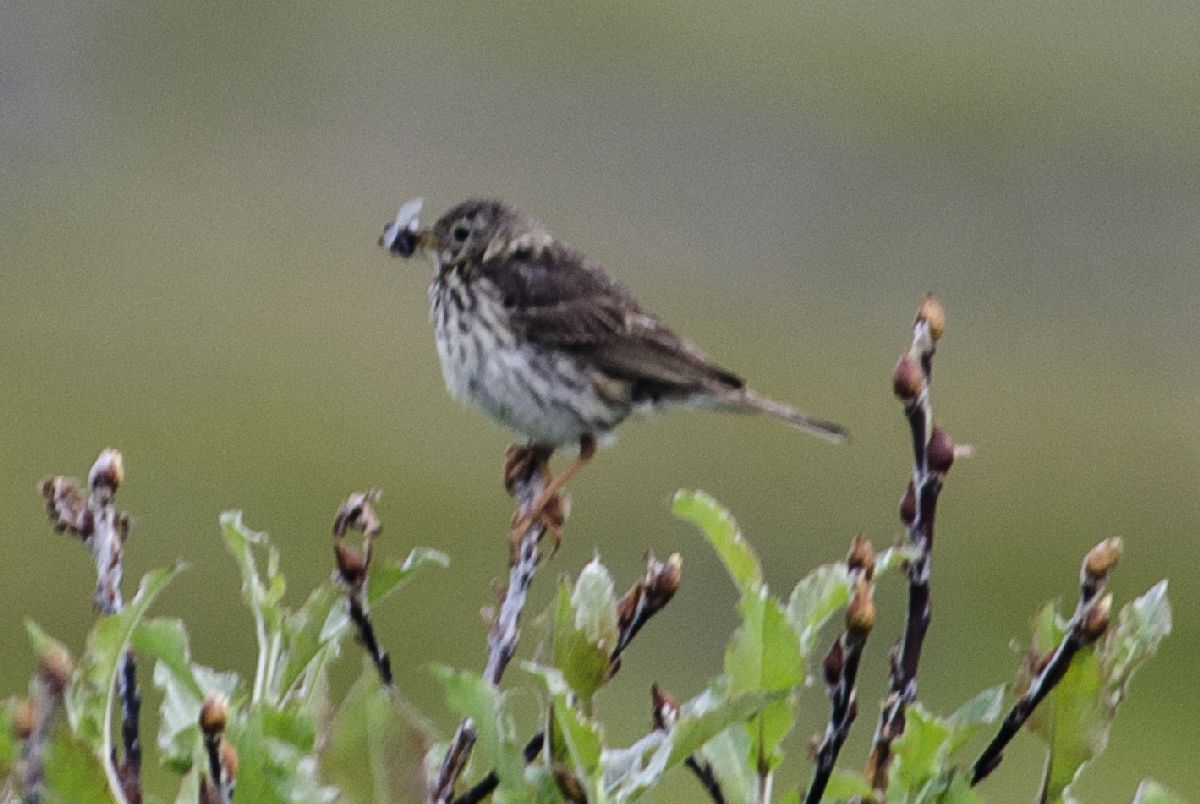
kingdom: Animalia
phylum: Chordata
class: Aves
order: Passeriformes
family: Motacillidae
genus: Anthus
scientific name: Anthus pratensis
